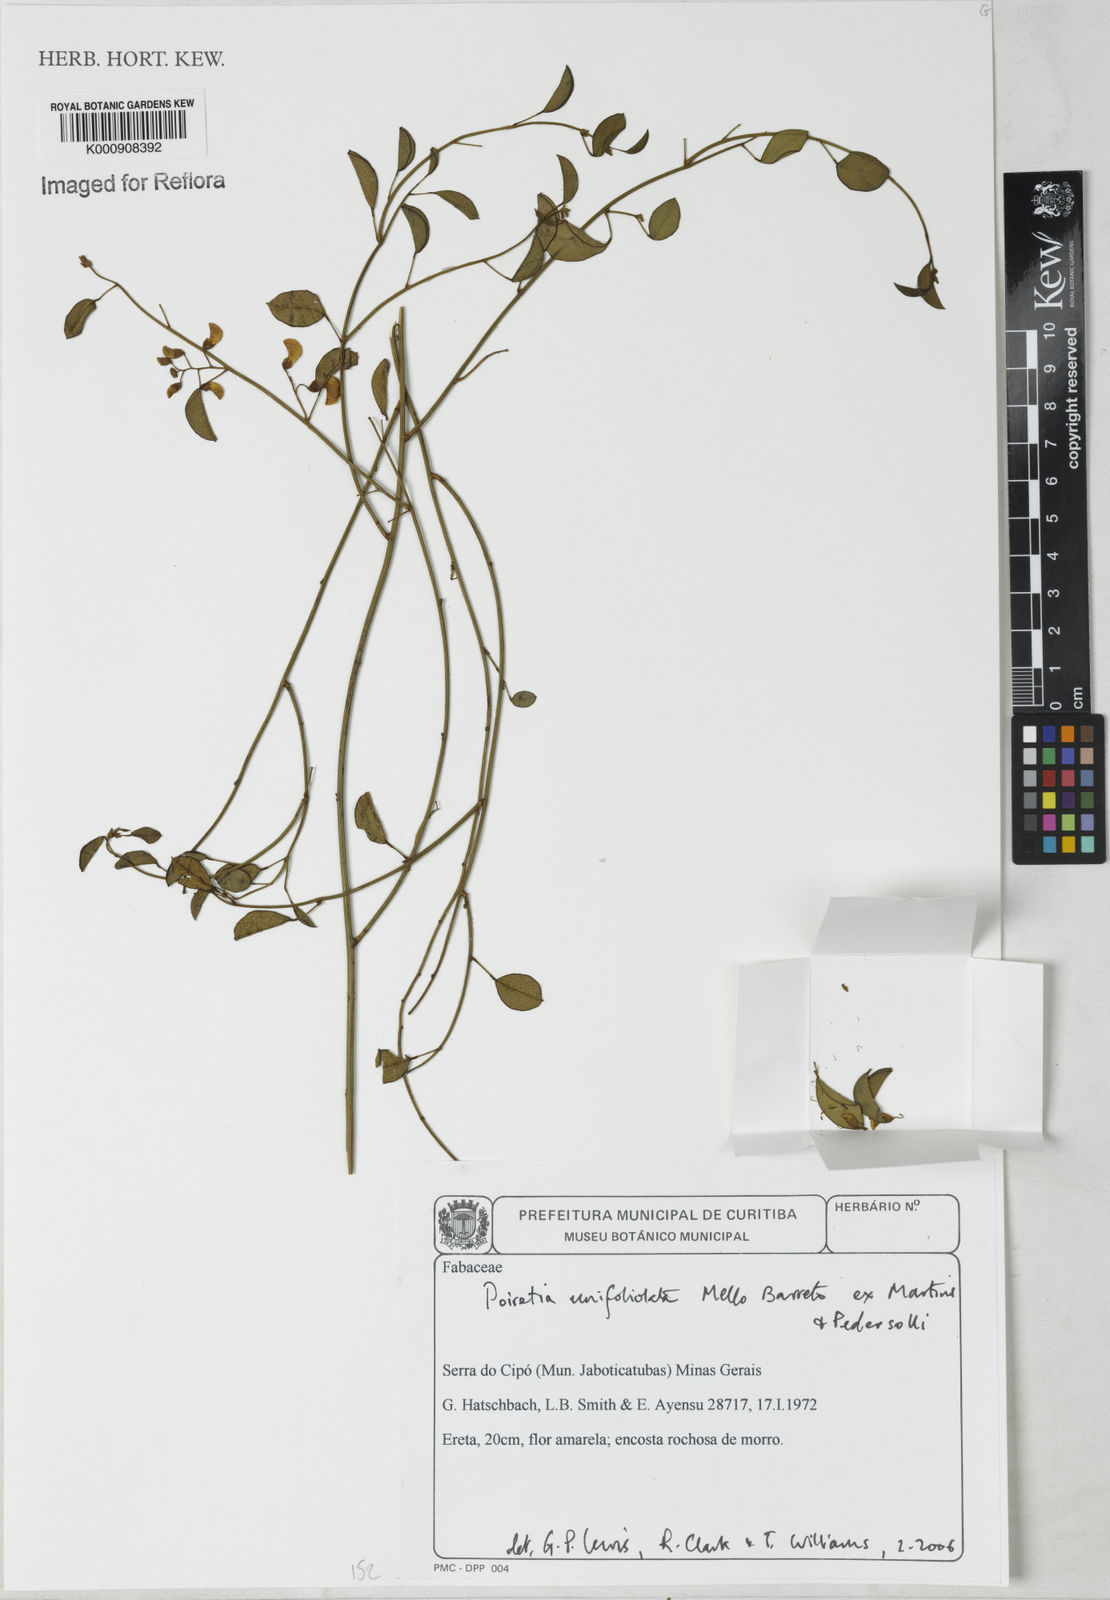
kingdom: Plantae
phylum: Tracheophyta
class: Magnoliopsida
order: Fabales
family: Fabaceae
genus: Poiretia
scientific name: Poiretia unifoliolata
